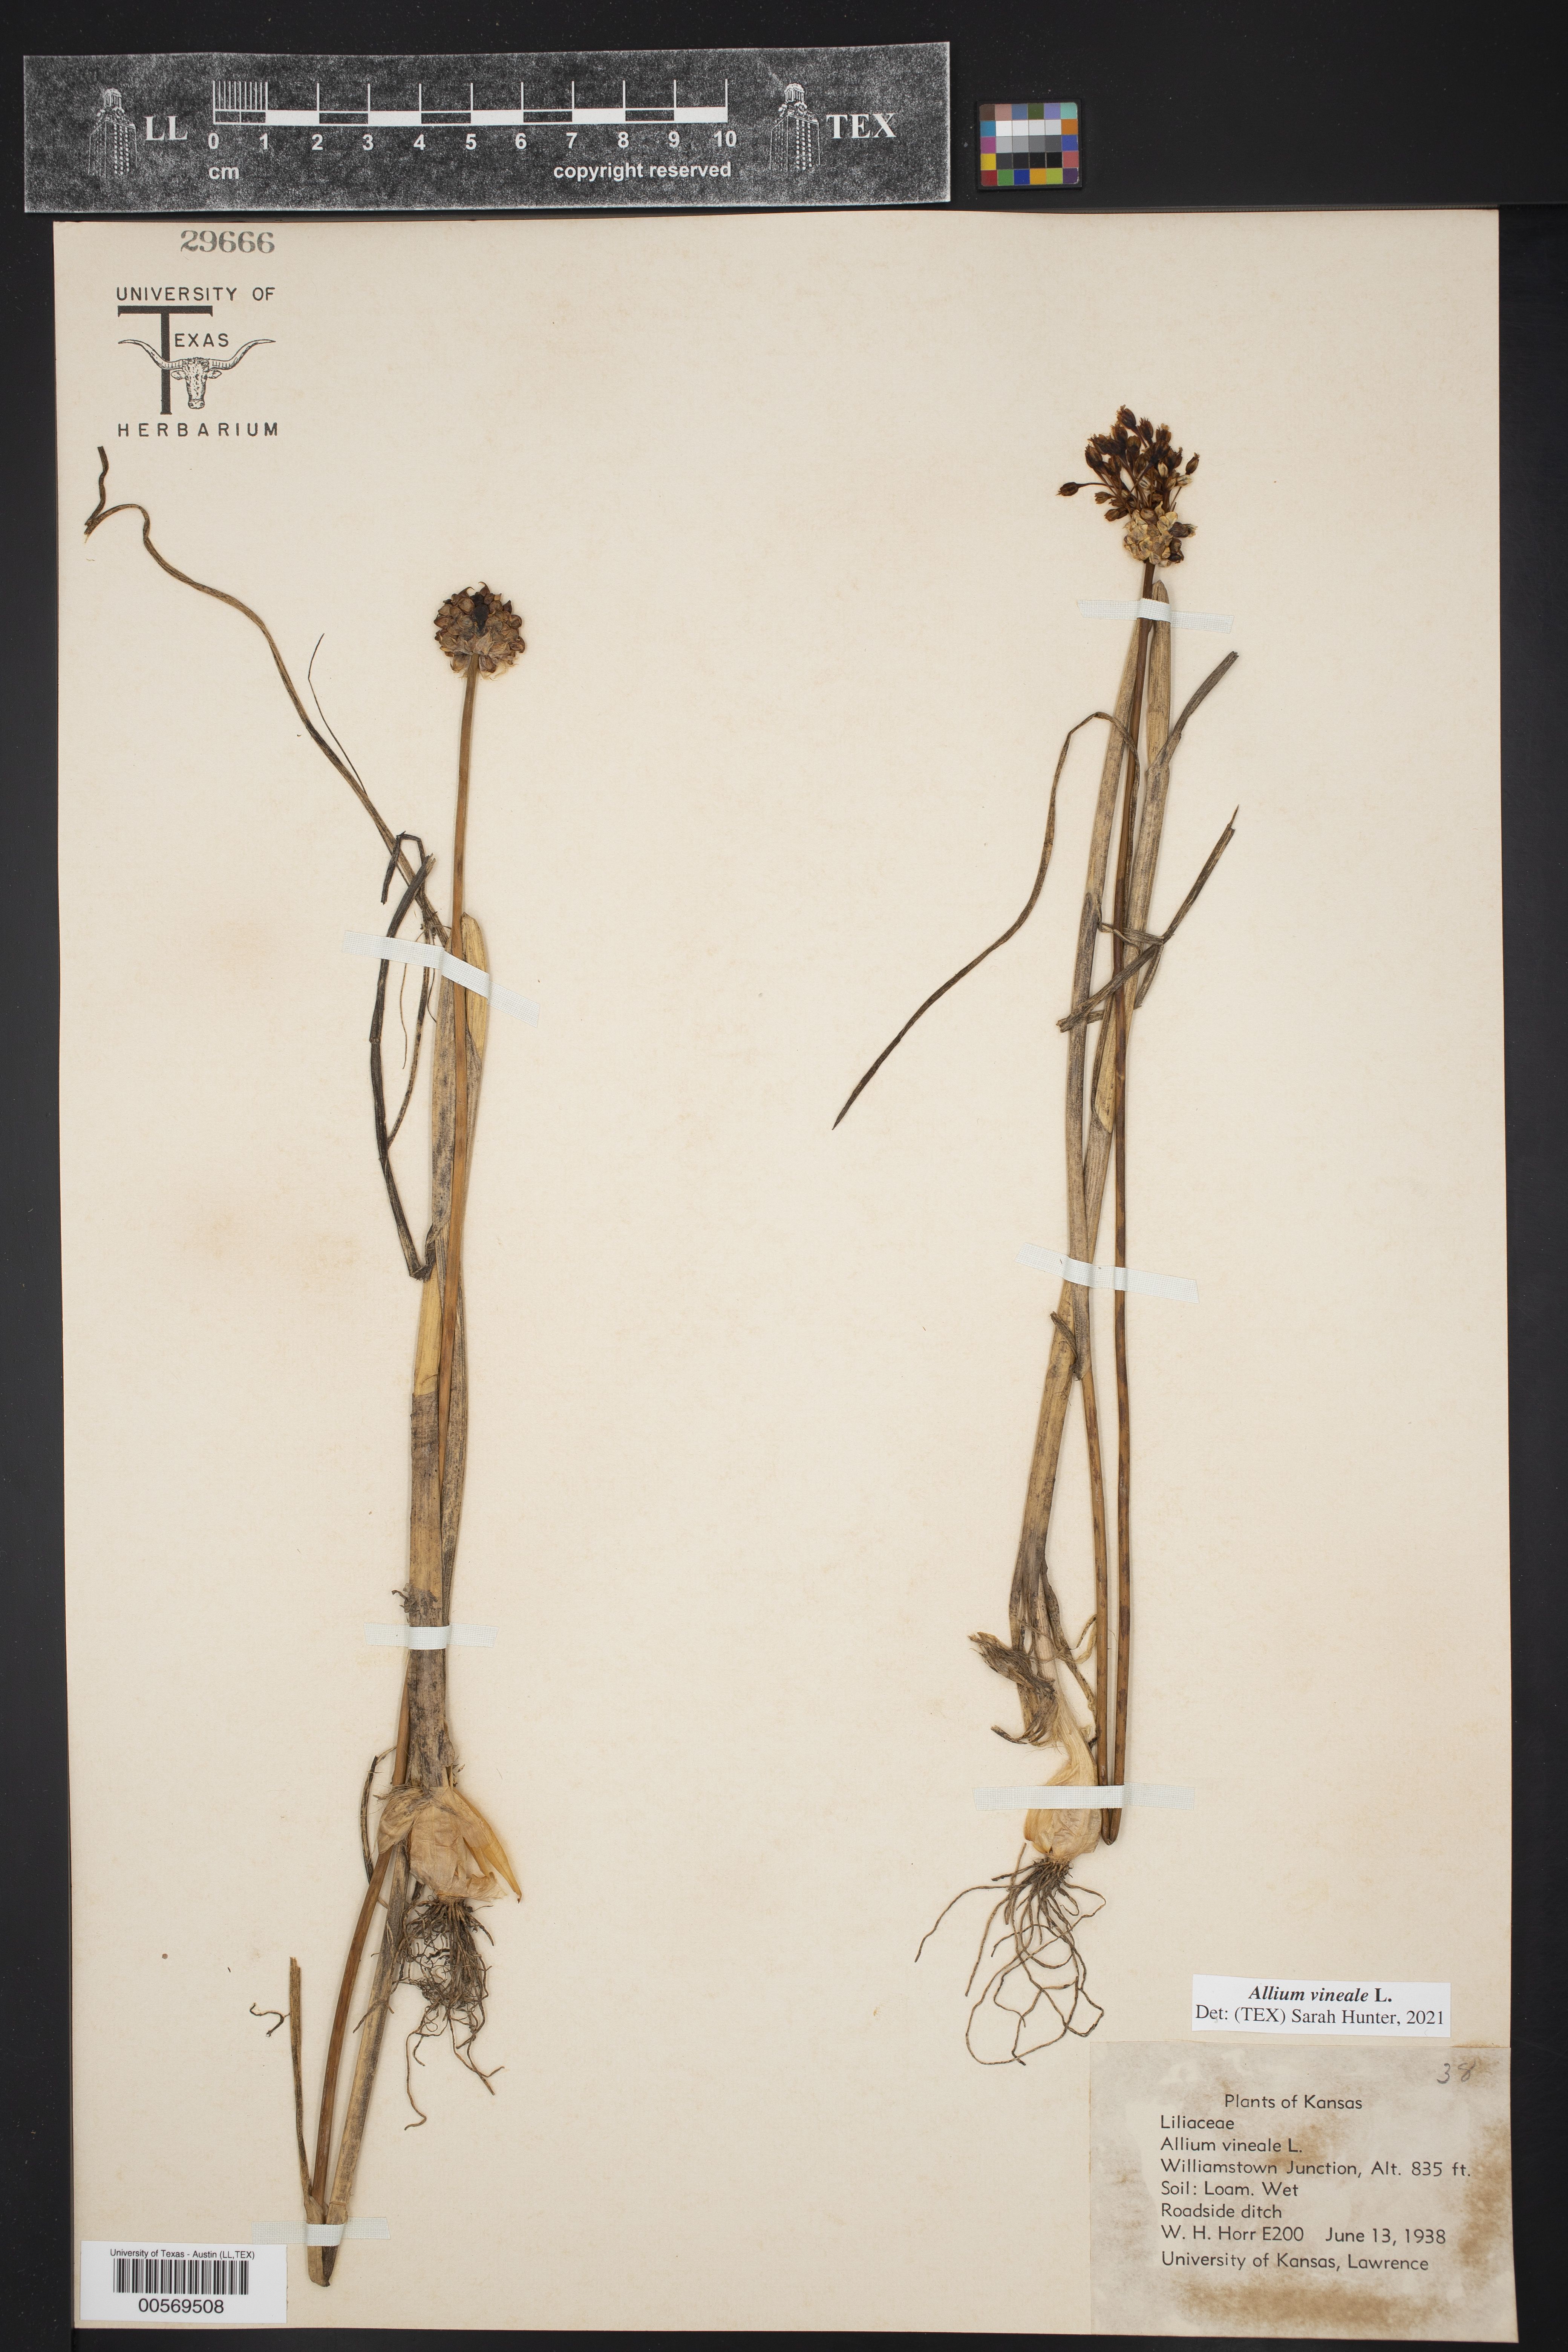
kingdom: Plantae
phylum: Tracheophyta
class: Liliopsida
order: Asparagales
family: Amaryllidaceae
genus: Allium
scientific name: Allium vineale
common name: Crow garlic
